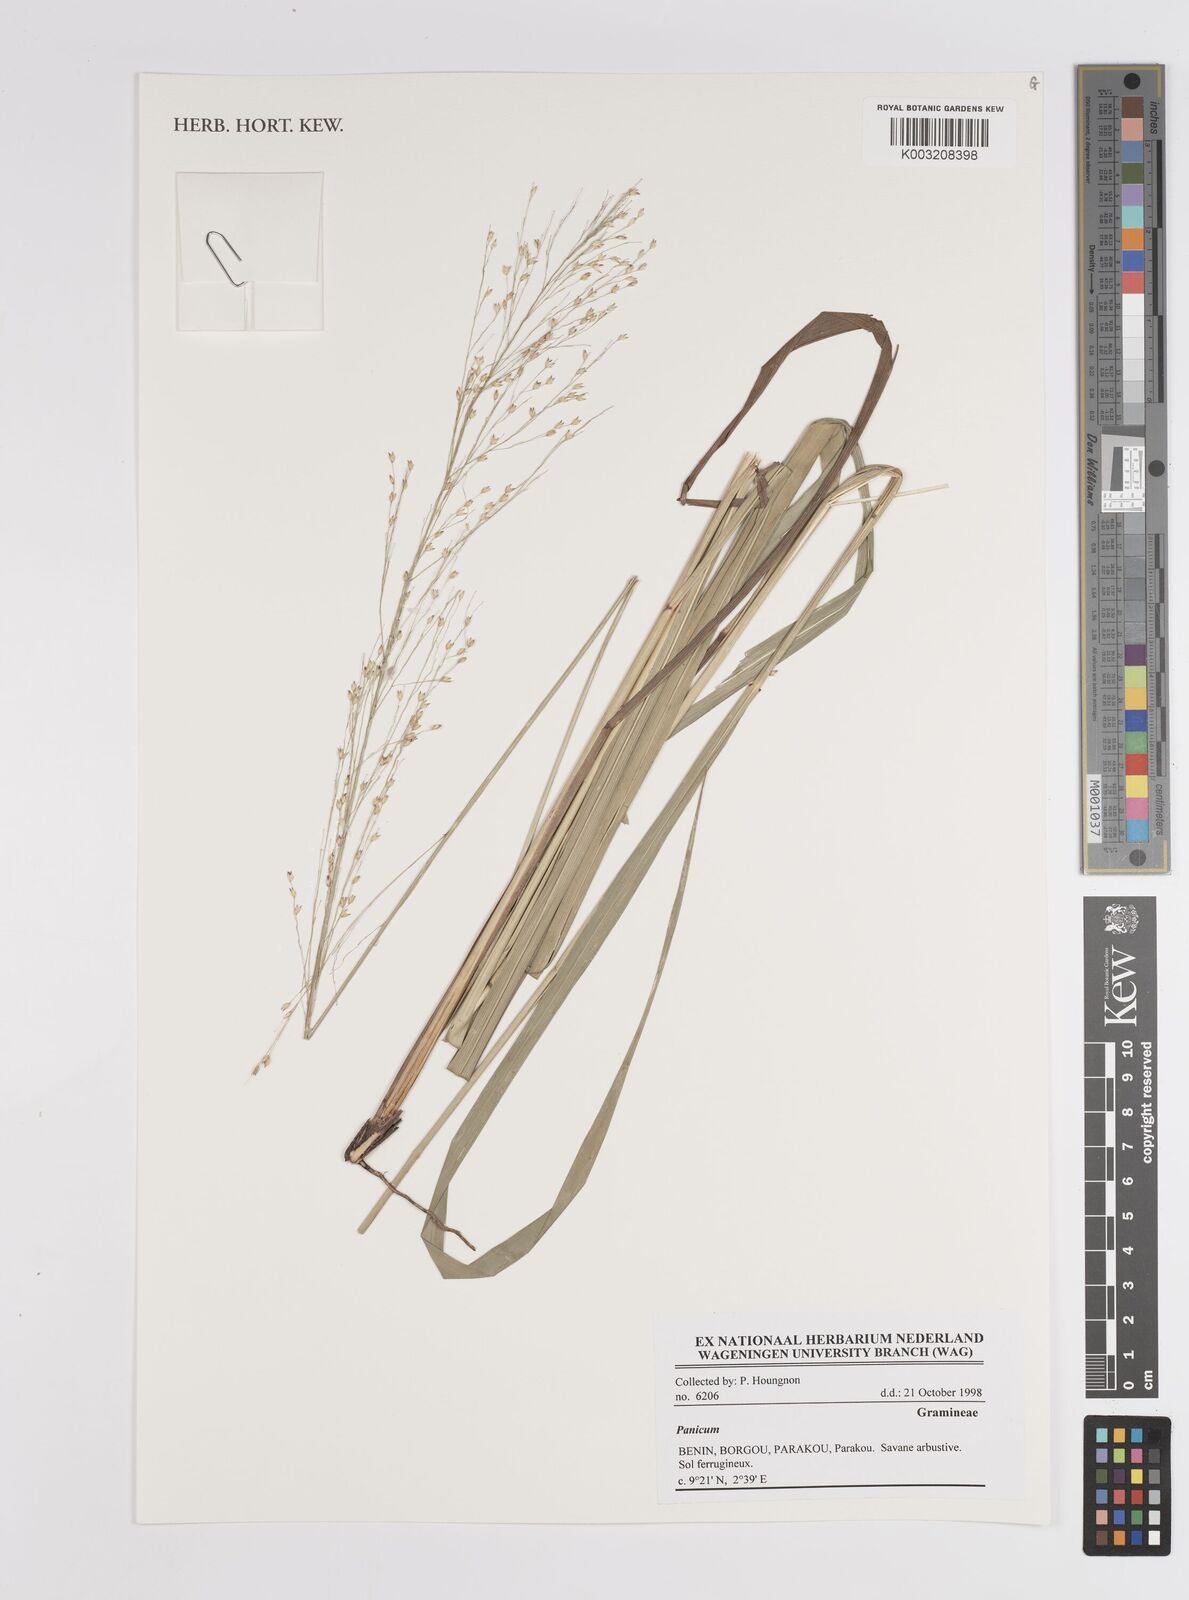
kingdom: Plantae
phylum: Tracheophyta
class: Liliopsida
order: Poales
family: Poaceae
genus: Panicum
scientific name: Panicum
